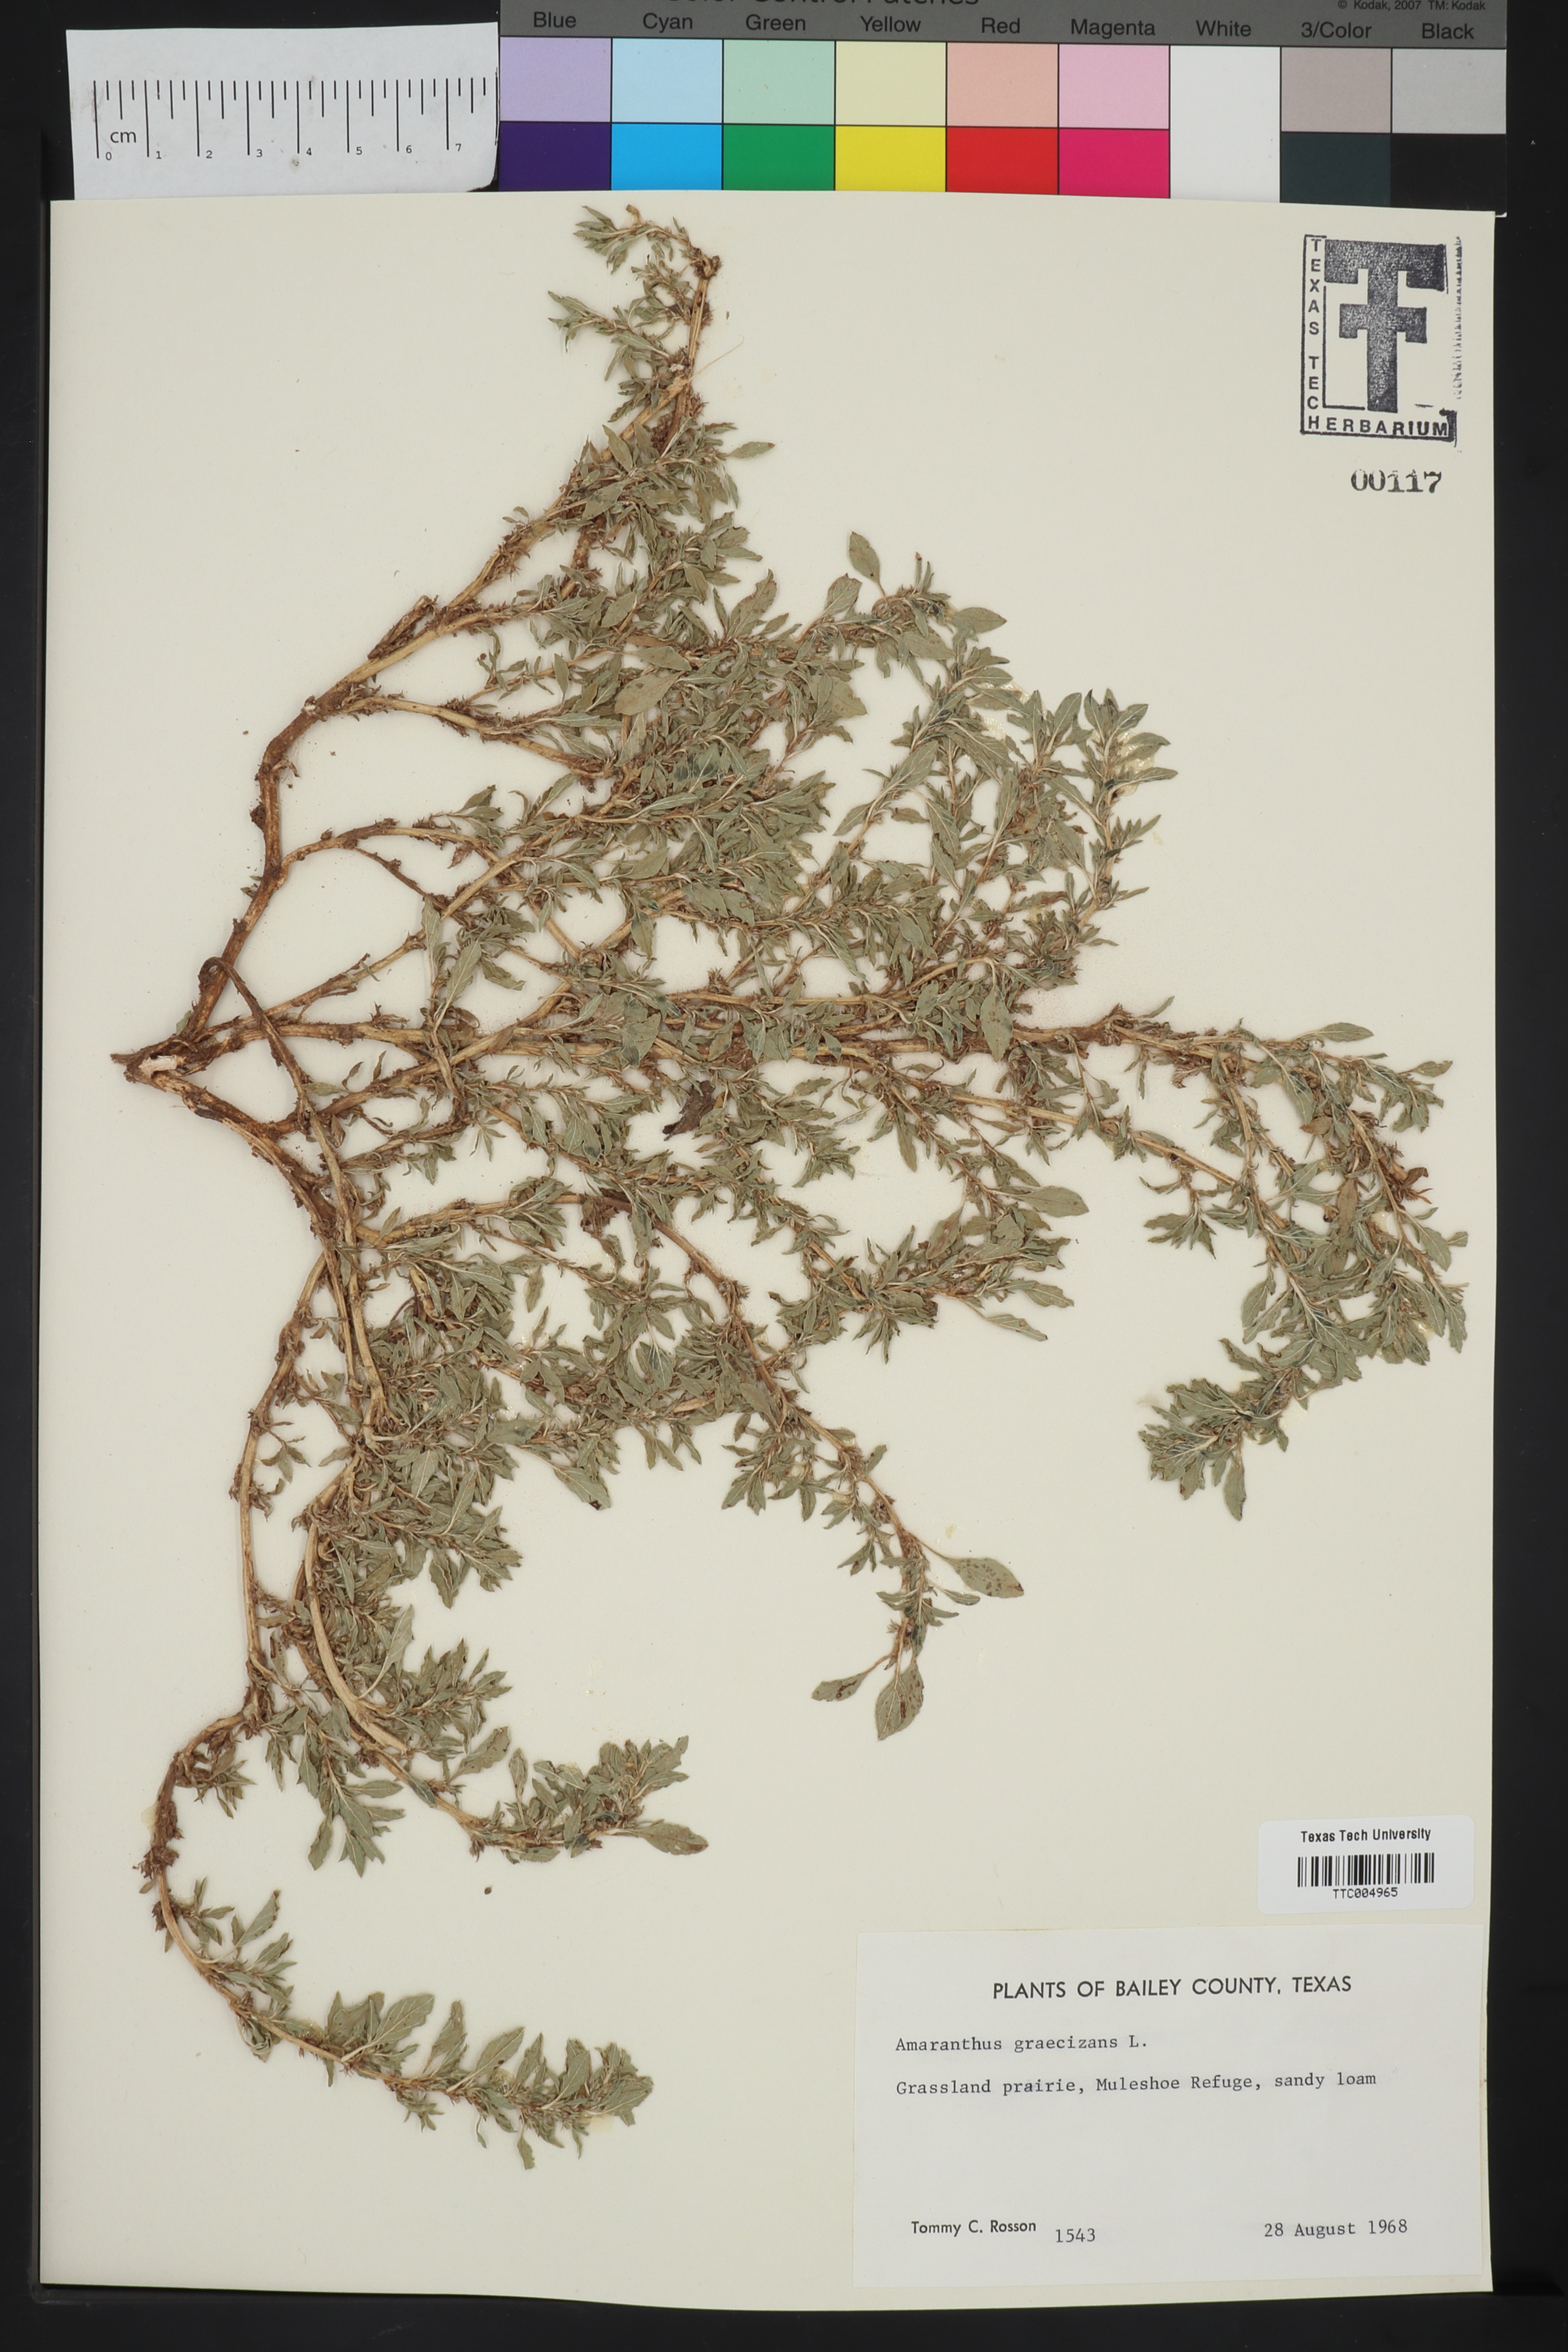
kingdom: Plantae
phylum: Tracheophyta
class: Magnoliopsida
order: Caryophyllales
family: Amaranthaceae
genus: Amaranthus
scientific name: Amaranthus graecizans
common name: Mediterranean amaranth
